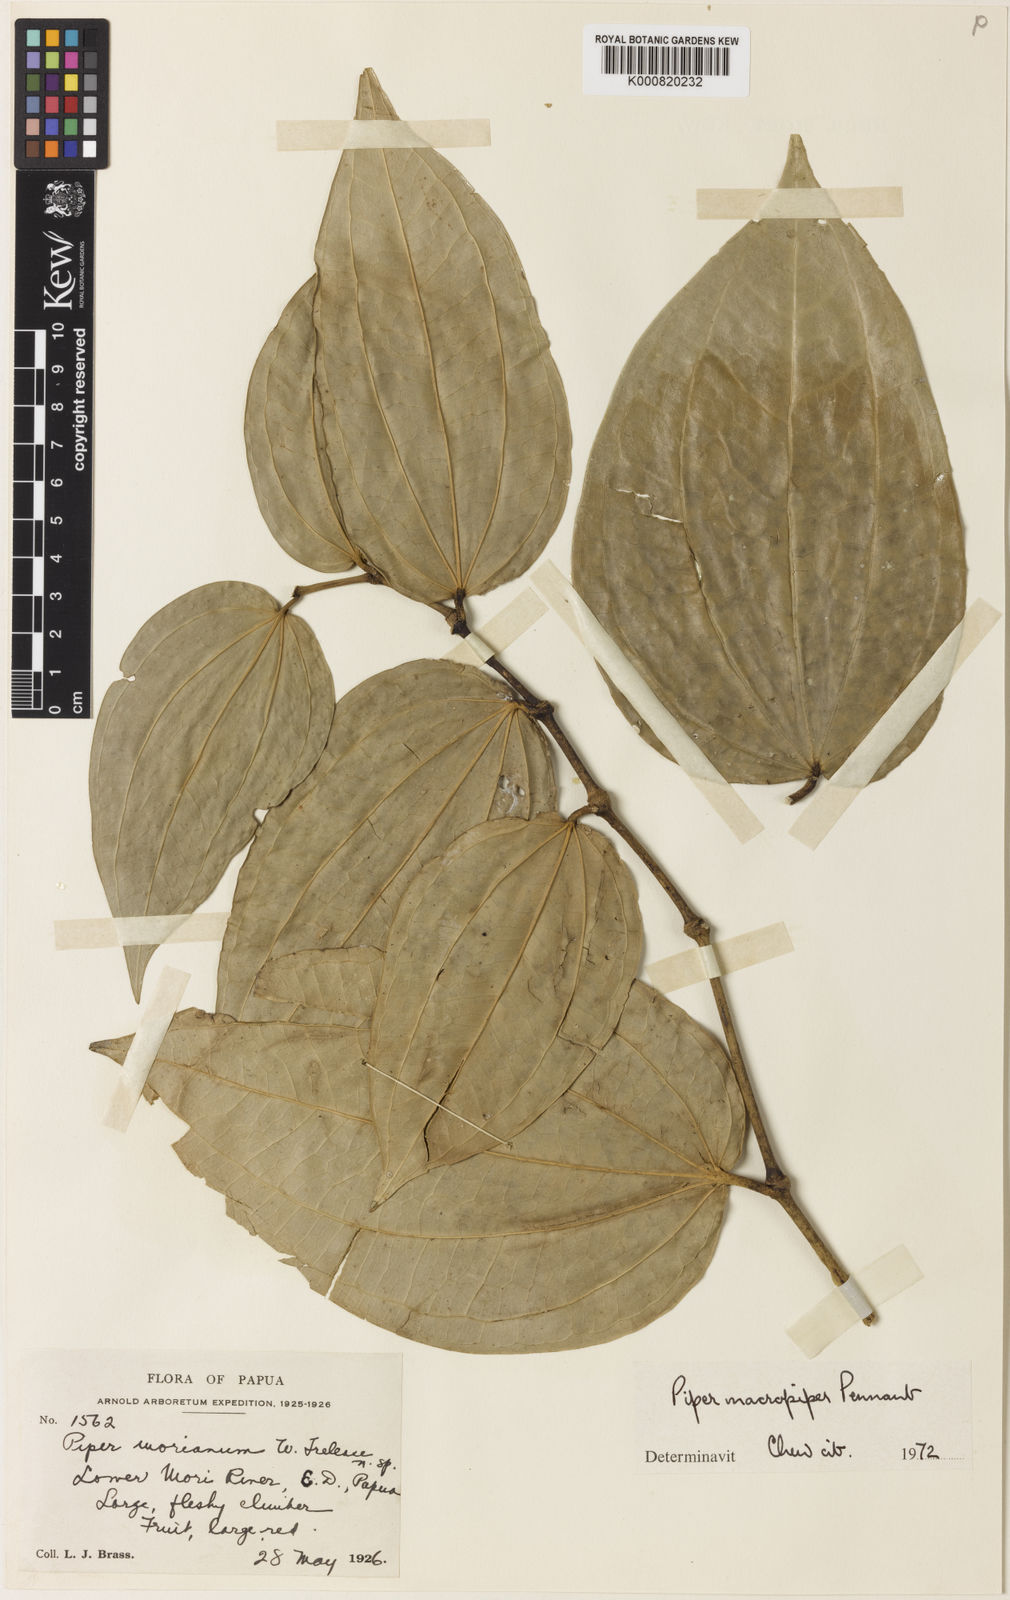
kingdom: Plantae
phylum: Tracheophyta
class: Magnoliopsida
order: Piperales
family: Piperaceae
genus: Piper
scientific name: Piper macropiper
